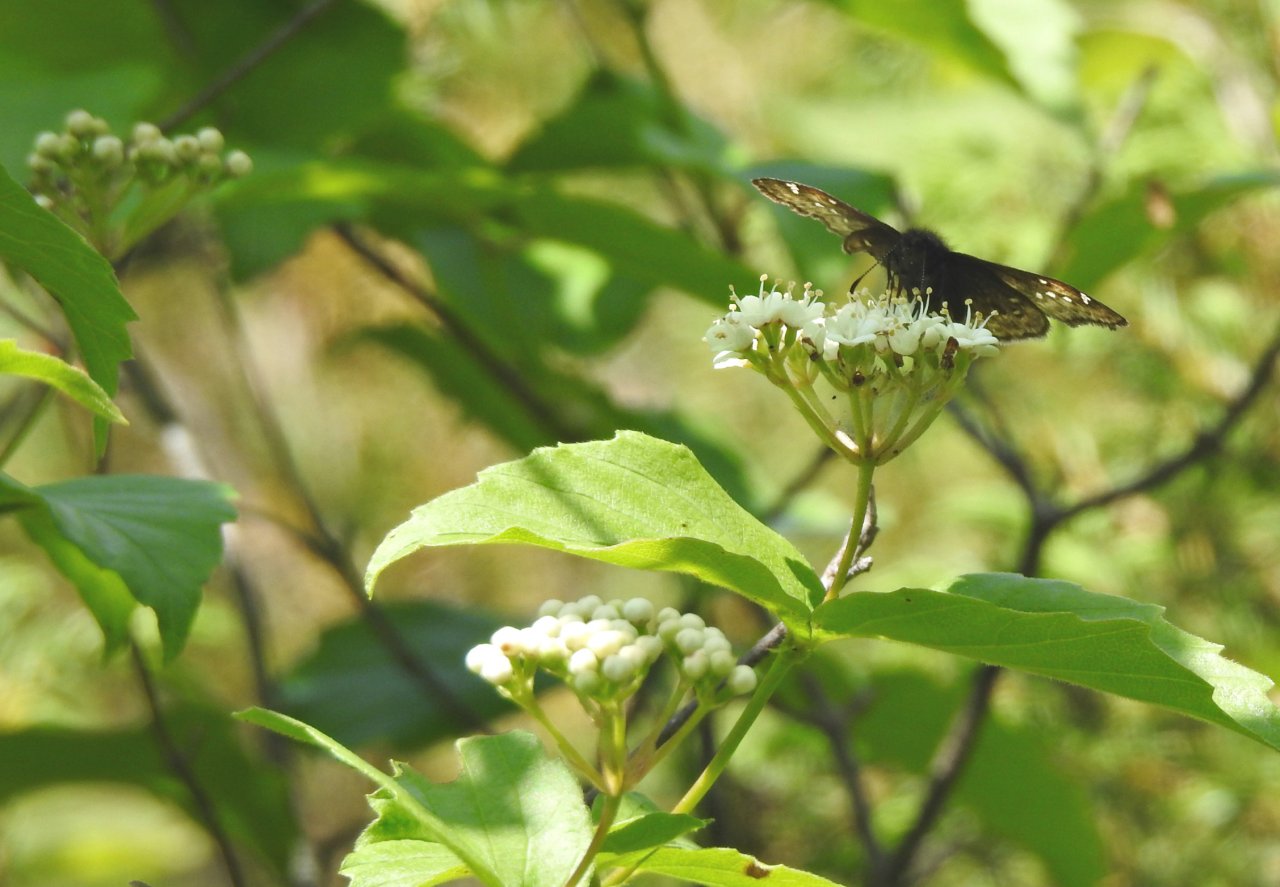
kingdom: Animalia
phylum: Arthropoda
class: Insecta
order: Lepidoptera
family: Hesperiidae
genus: Erynnis
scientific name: Erynnis martialis
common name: Mottled Duskywing
